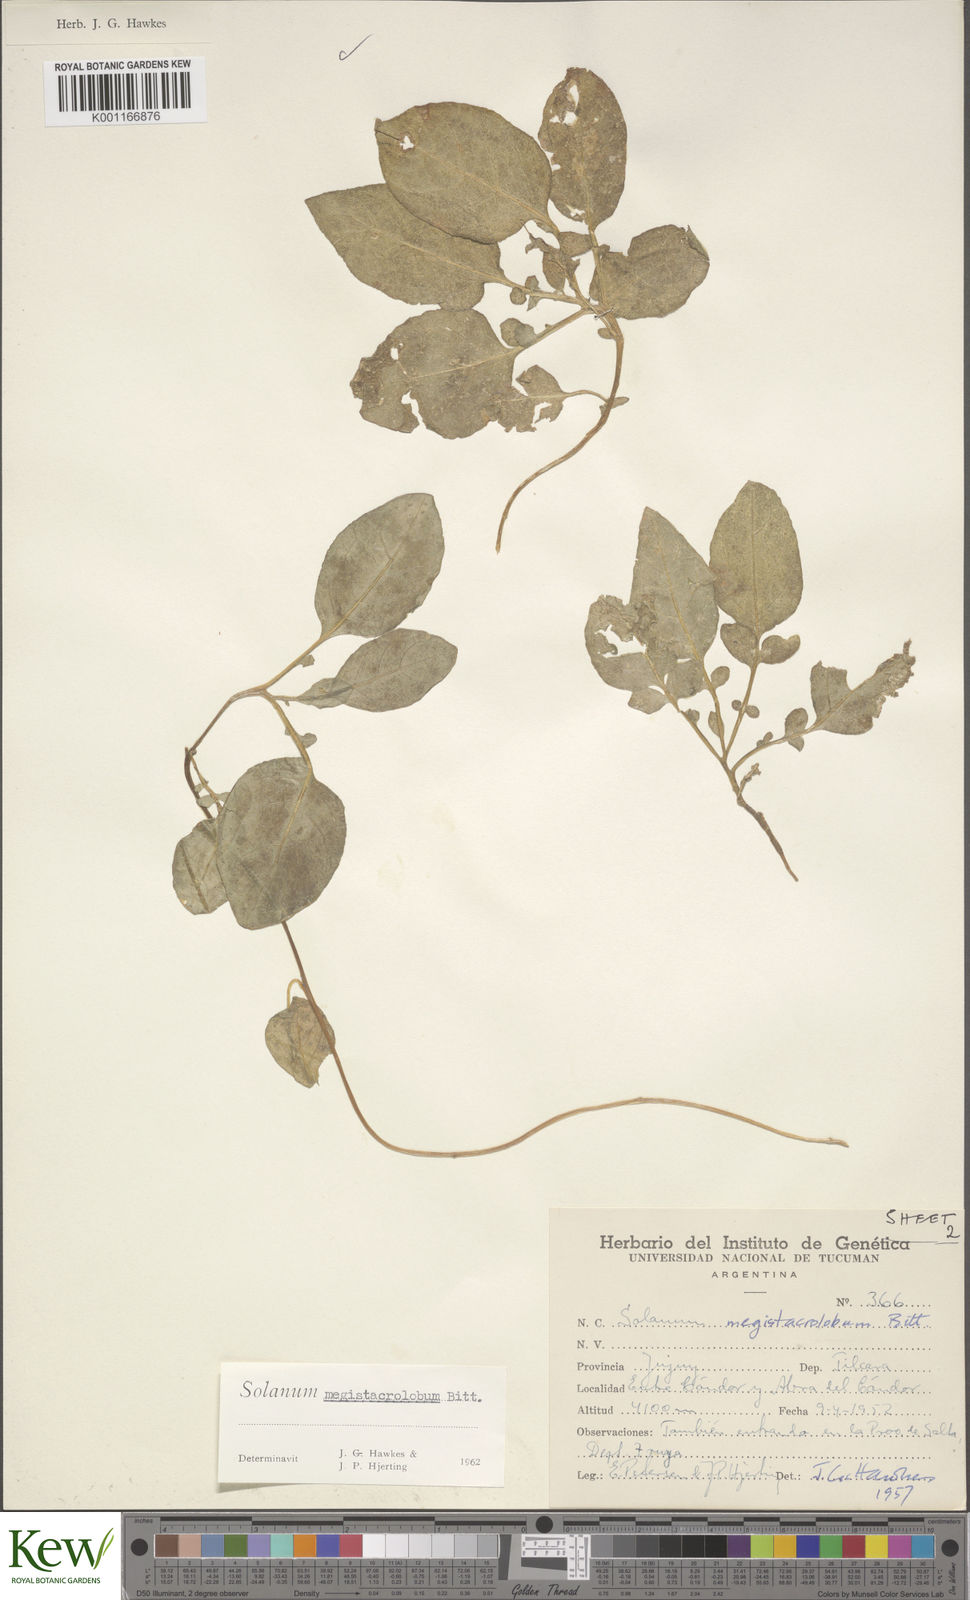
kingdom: Plantae
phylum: Tracheophyta
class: Magnoliopsida
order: Solanales
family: Solanaceae
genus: Solanum
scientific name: Solanum boliviense
